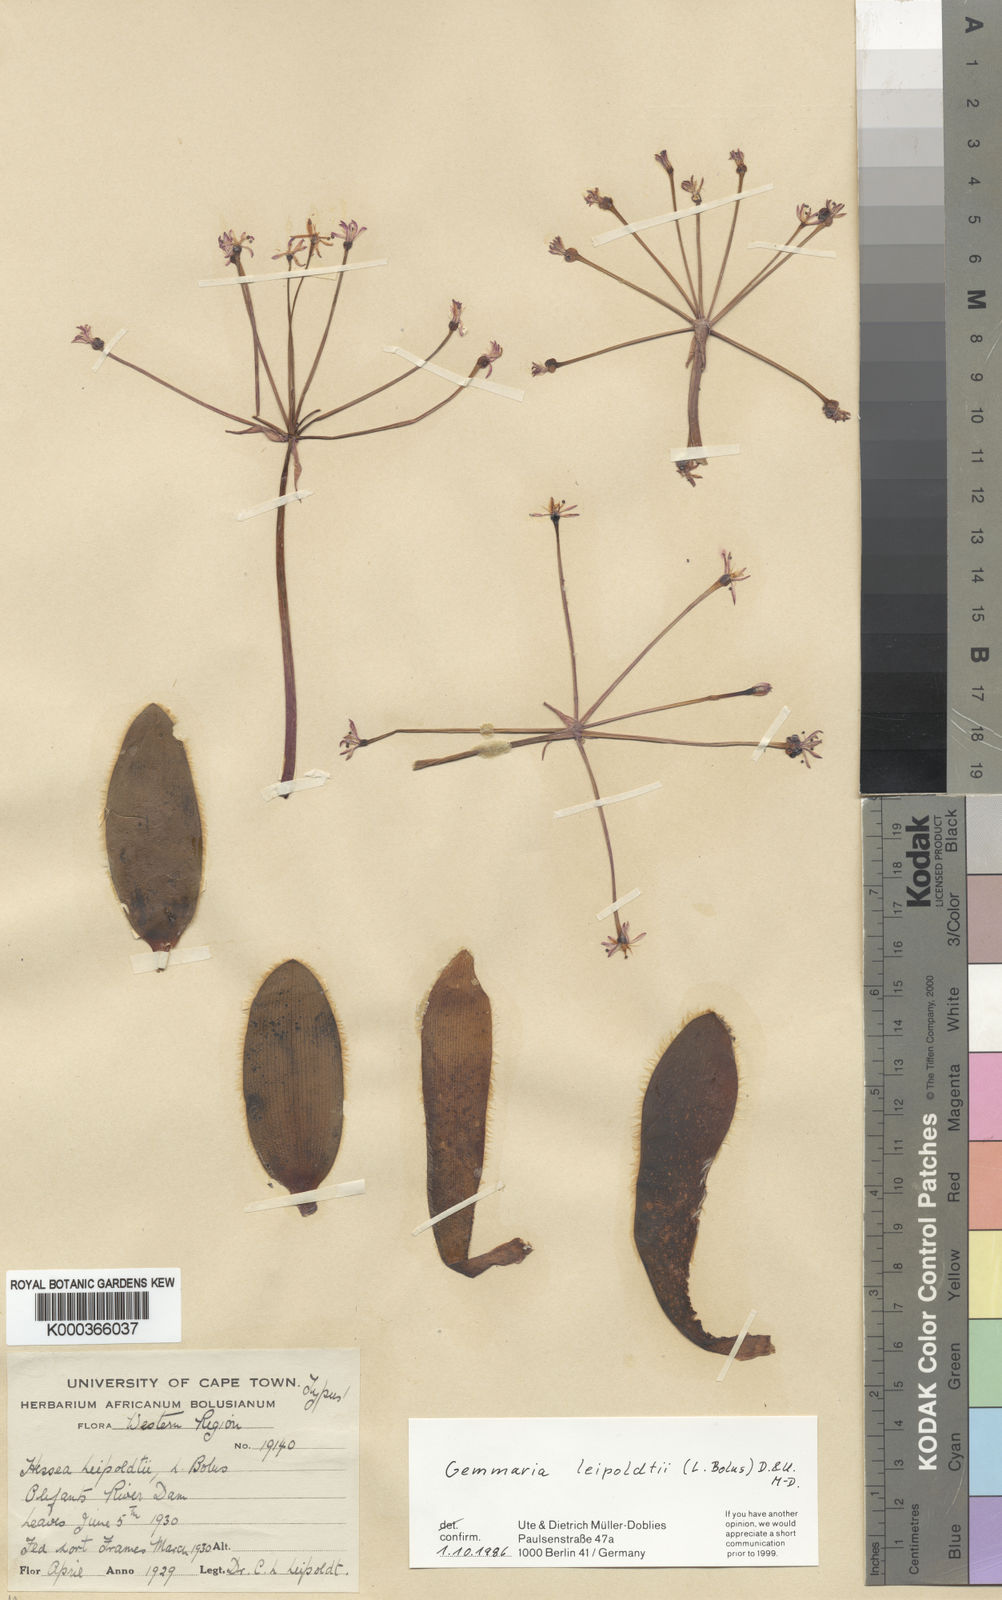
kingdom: Plantae
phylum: Tracheophyta
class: Liliopsida
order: Asparagales
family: Amaryllidaceae
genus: Strumaria
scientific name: Strumaria leipoldtii
